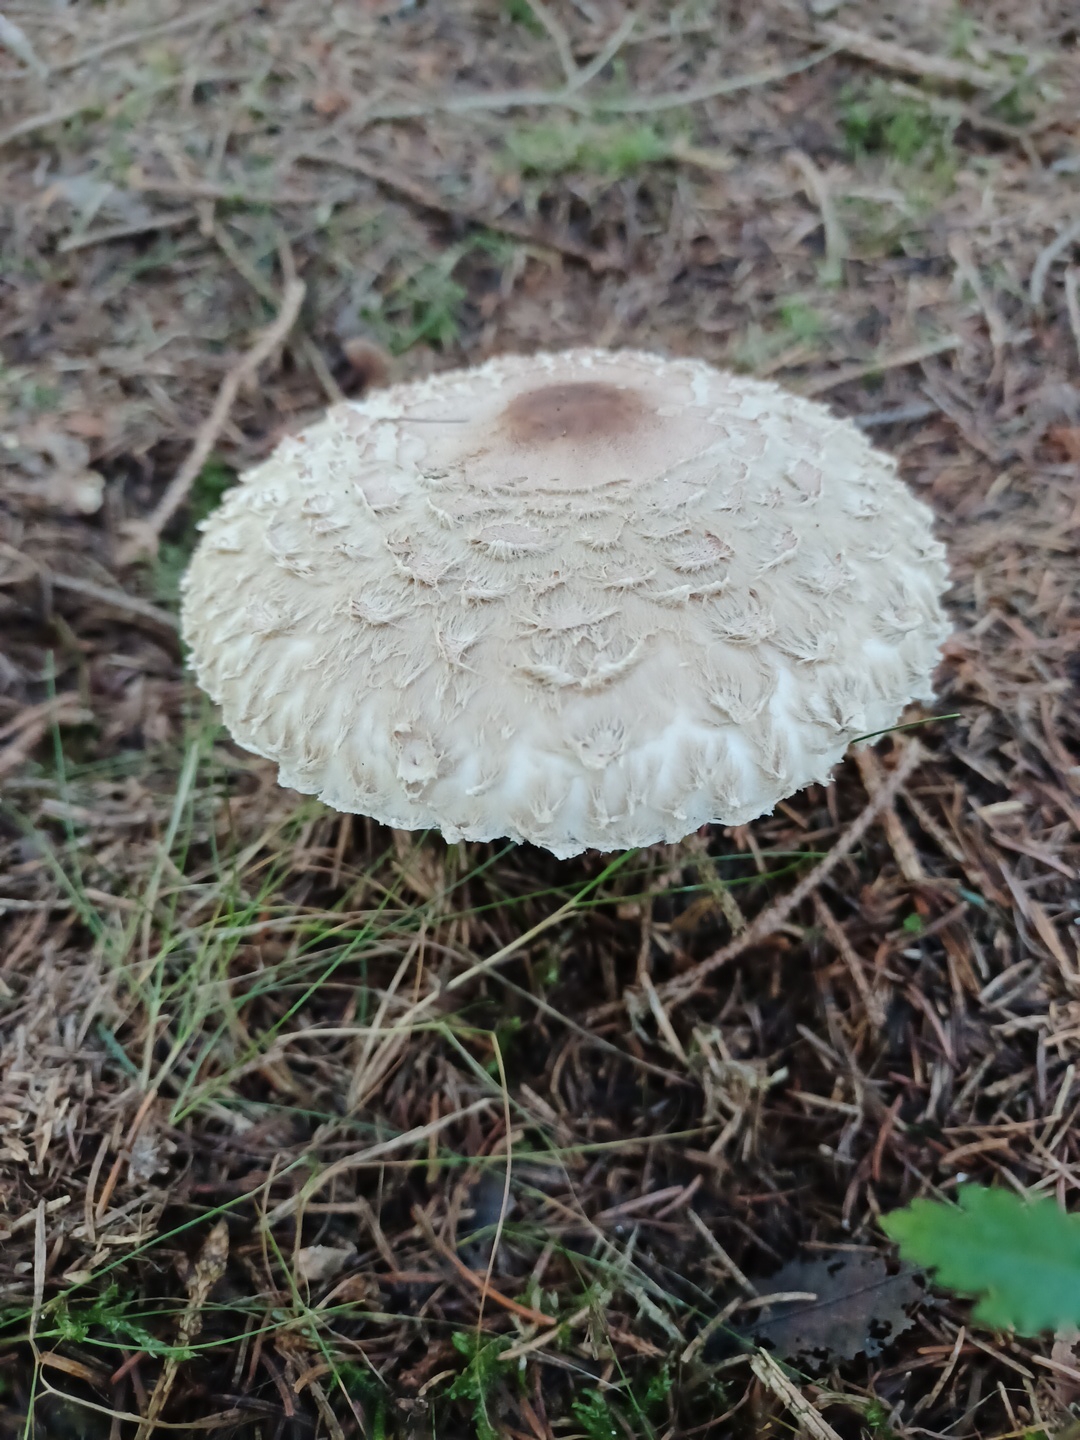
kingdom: Fungi
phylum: Basidiomycota
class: Agaricomycetes
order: Agaricales
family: Agaricaceae
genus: Chlorophyllum
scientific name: Chlorophyllum olivieri
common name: almindelig rabarberhat
